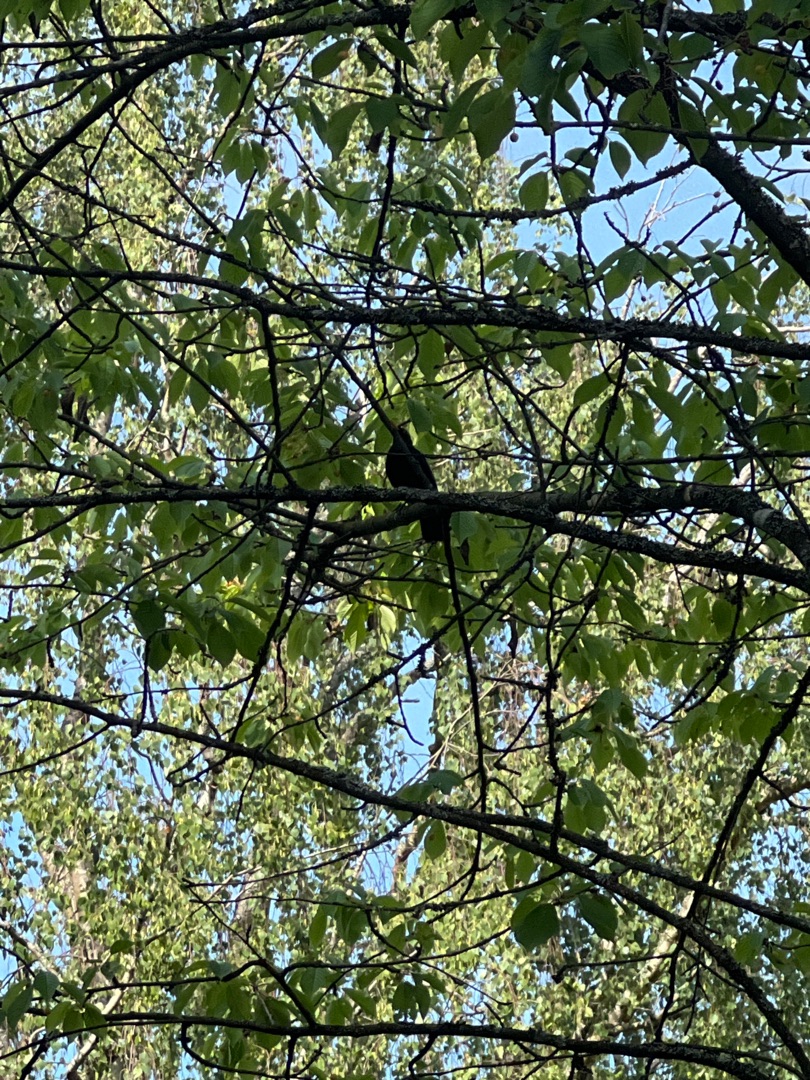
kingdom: Animalia
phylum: Chordata
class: Aves
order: Passeriformes
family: Turdidae
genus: Turdus
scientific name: Turdus merula
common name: Solsort
